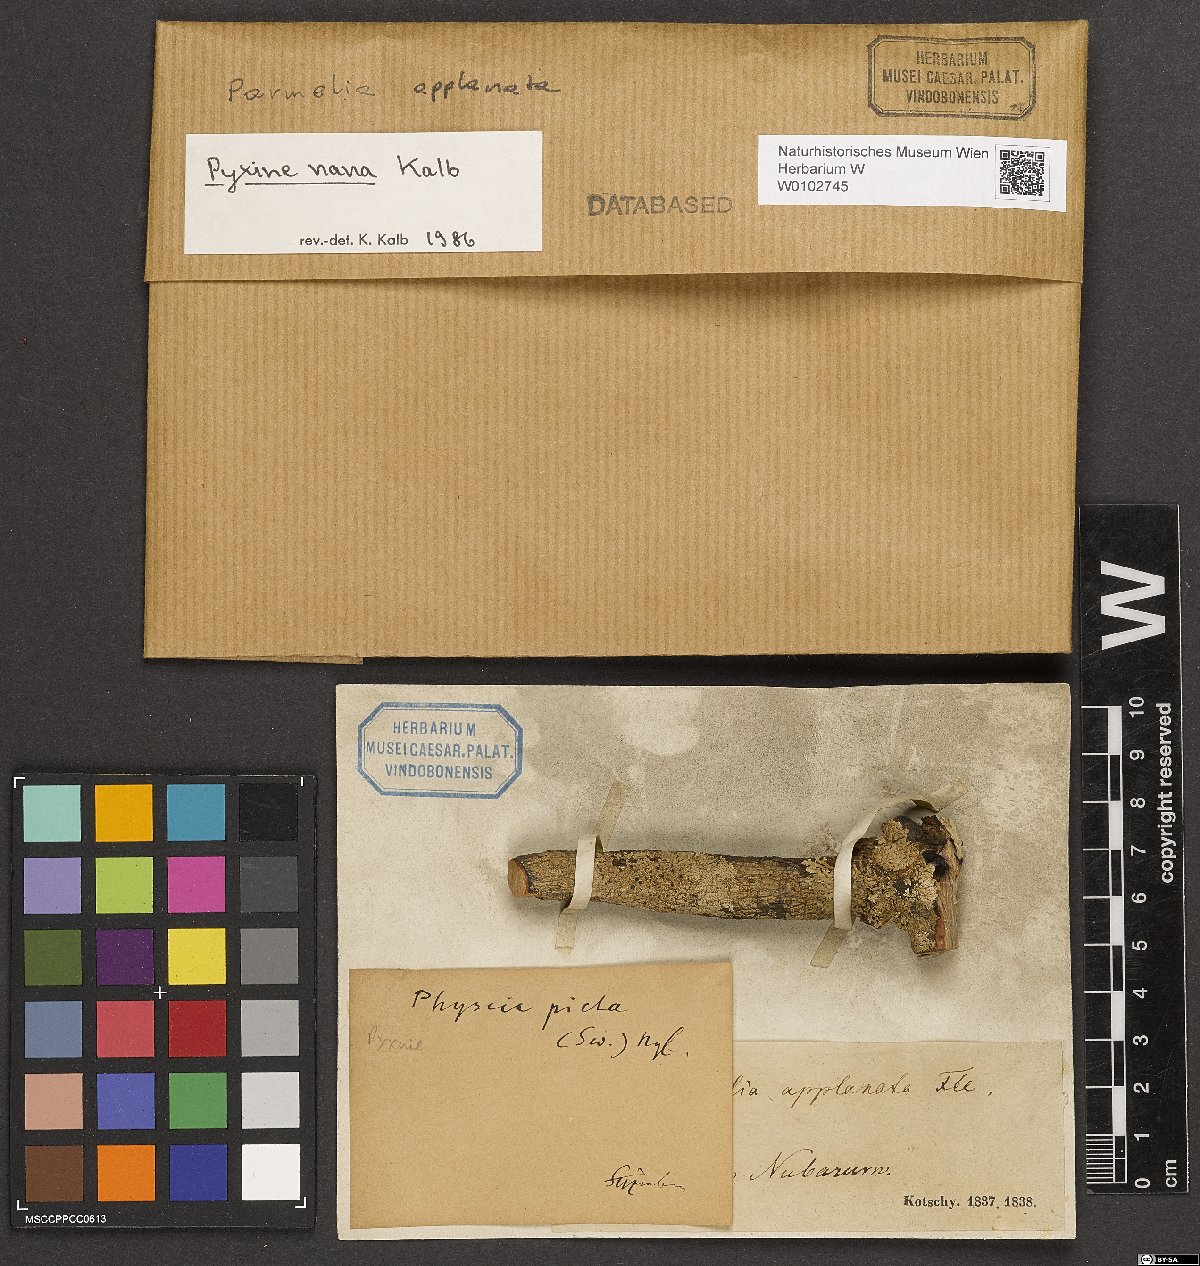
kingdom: Fungi
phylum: Ascomycota
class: Lecanoromycetes
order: Caliciales
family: Caliciaceae
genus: Pyxine
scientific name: Pyxine nana
